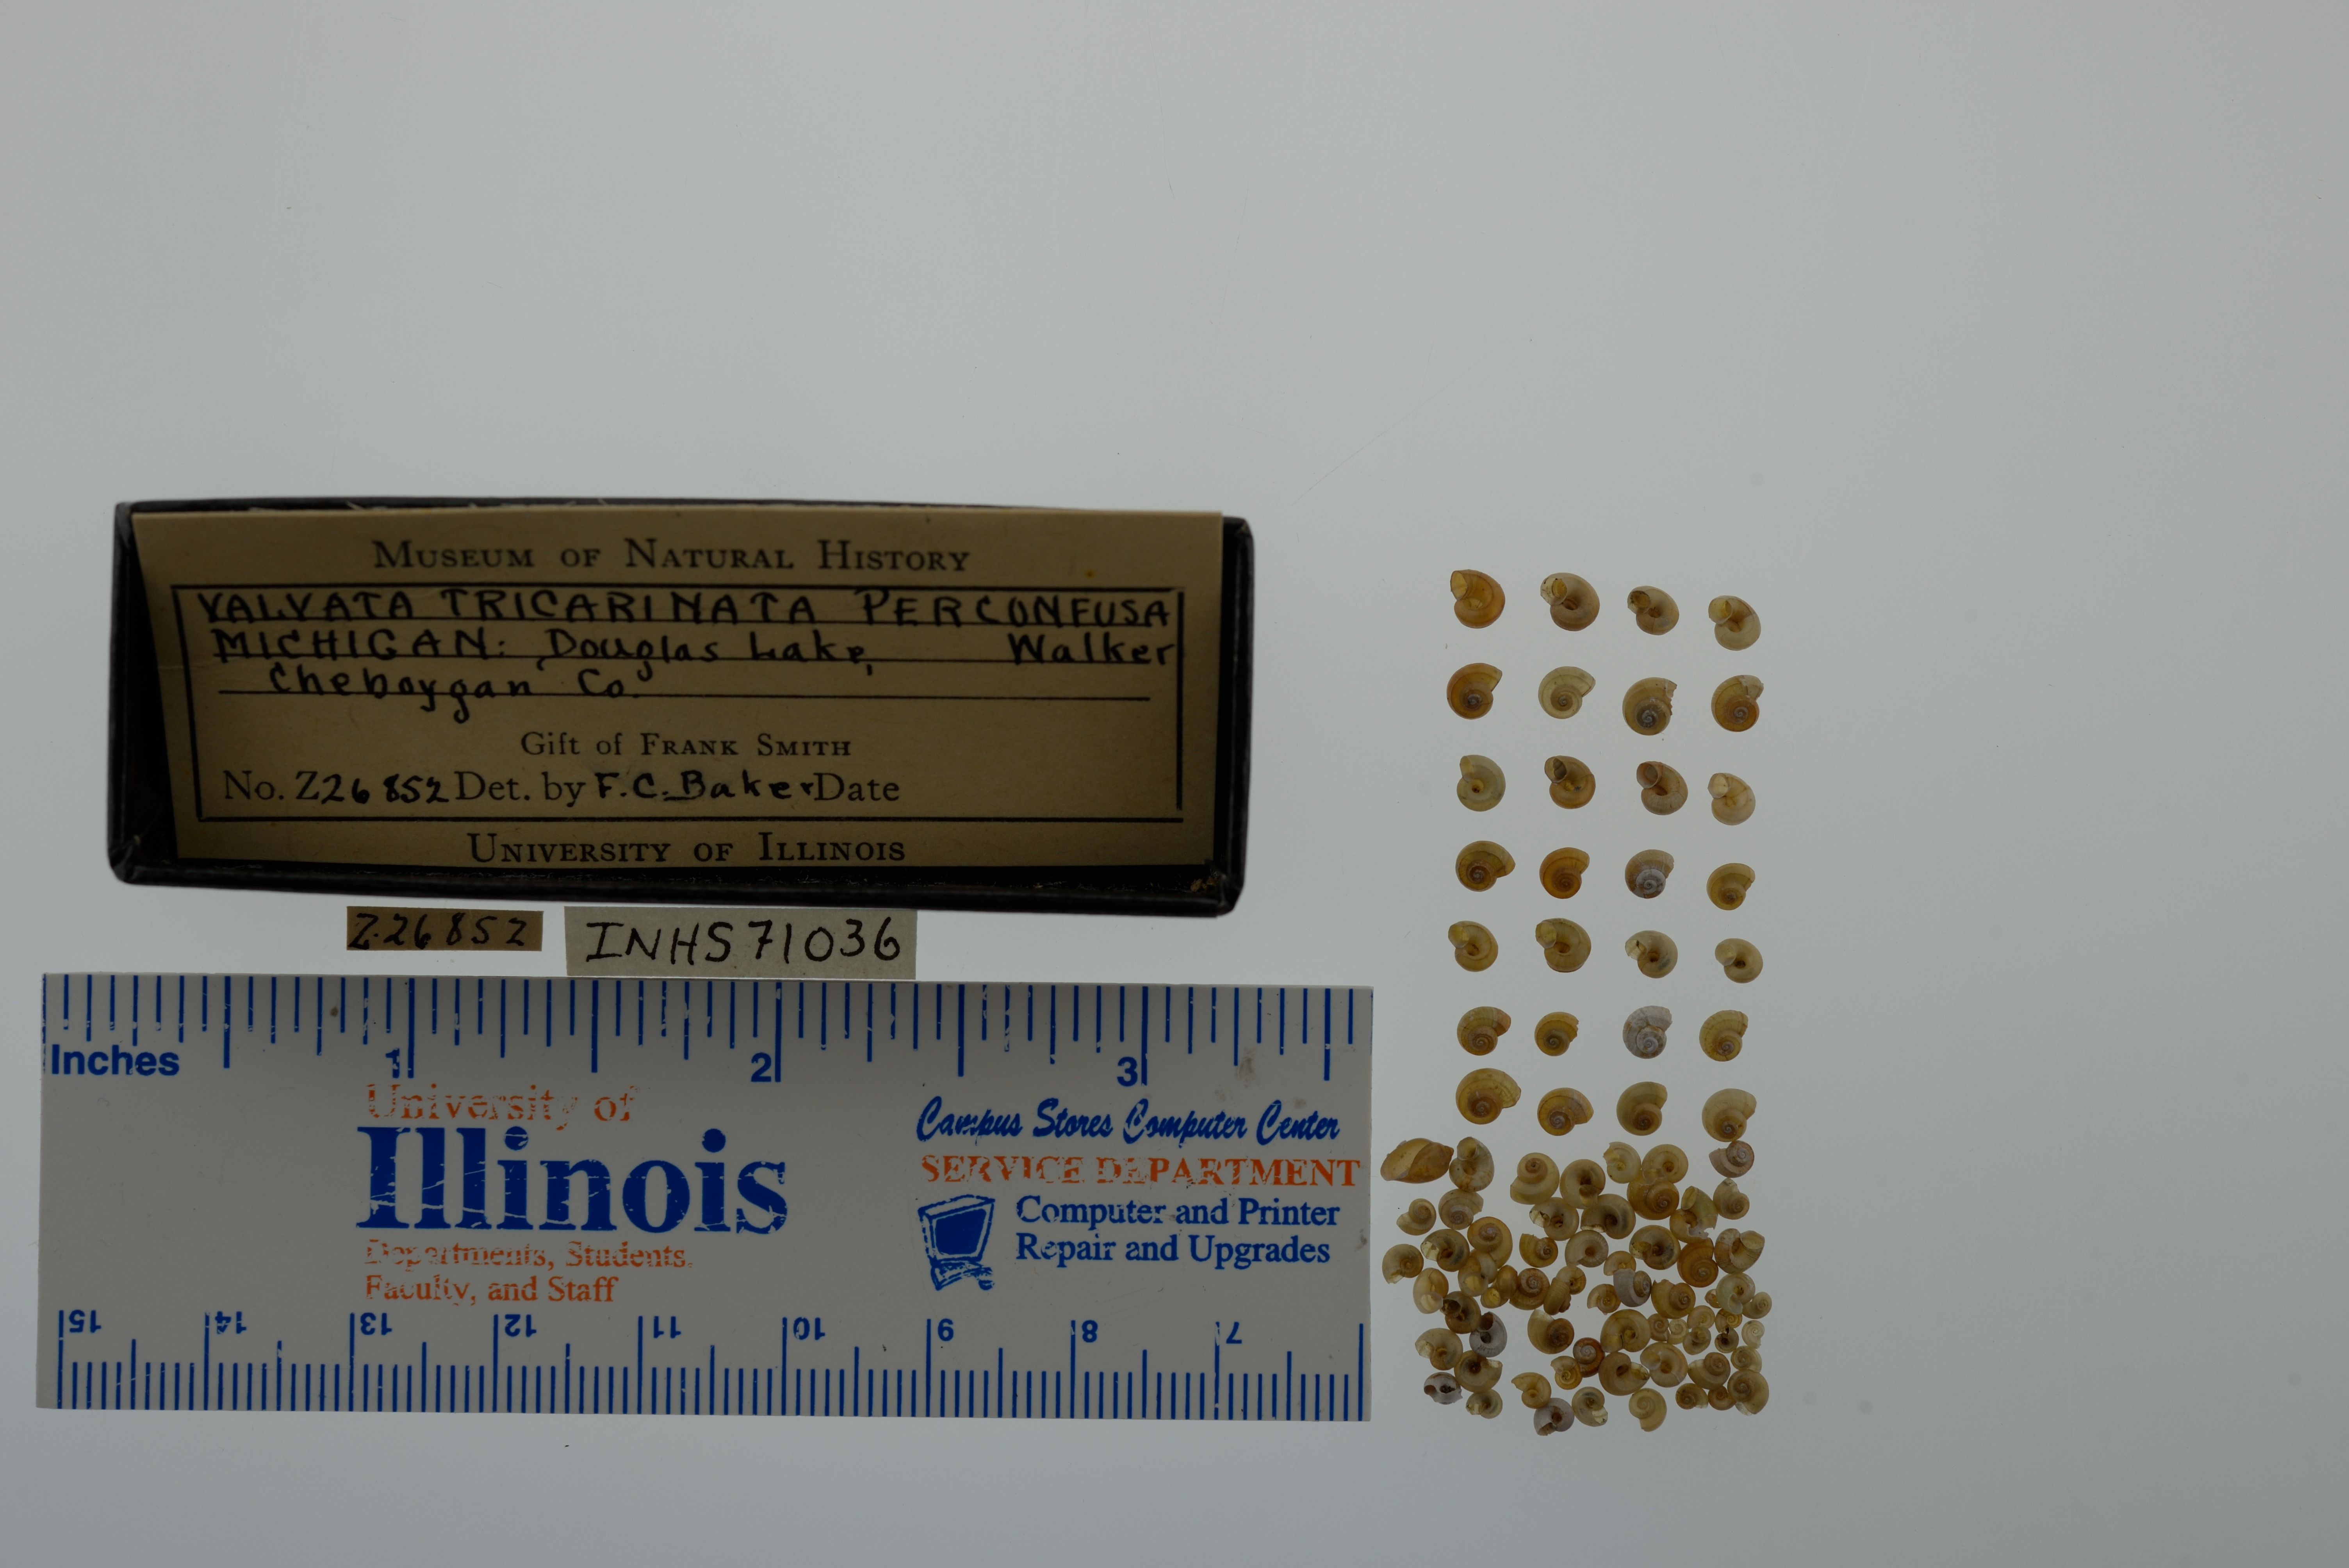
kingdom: Animalia
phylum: Mollusca
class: Gastropoda
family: Valvatidae
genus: Valvata
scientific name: Valvata tricarinata
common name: Three-ridge valvata
